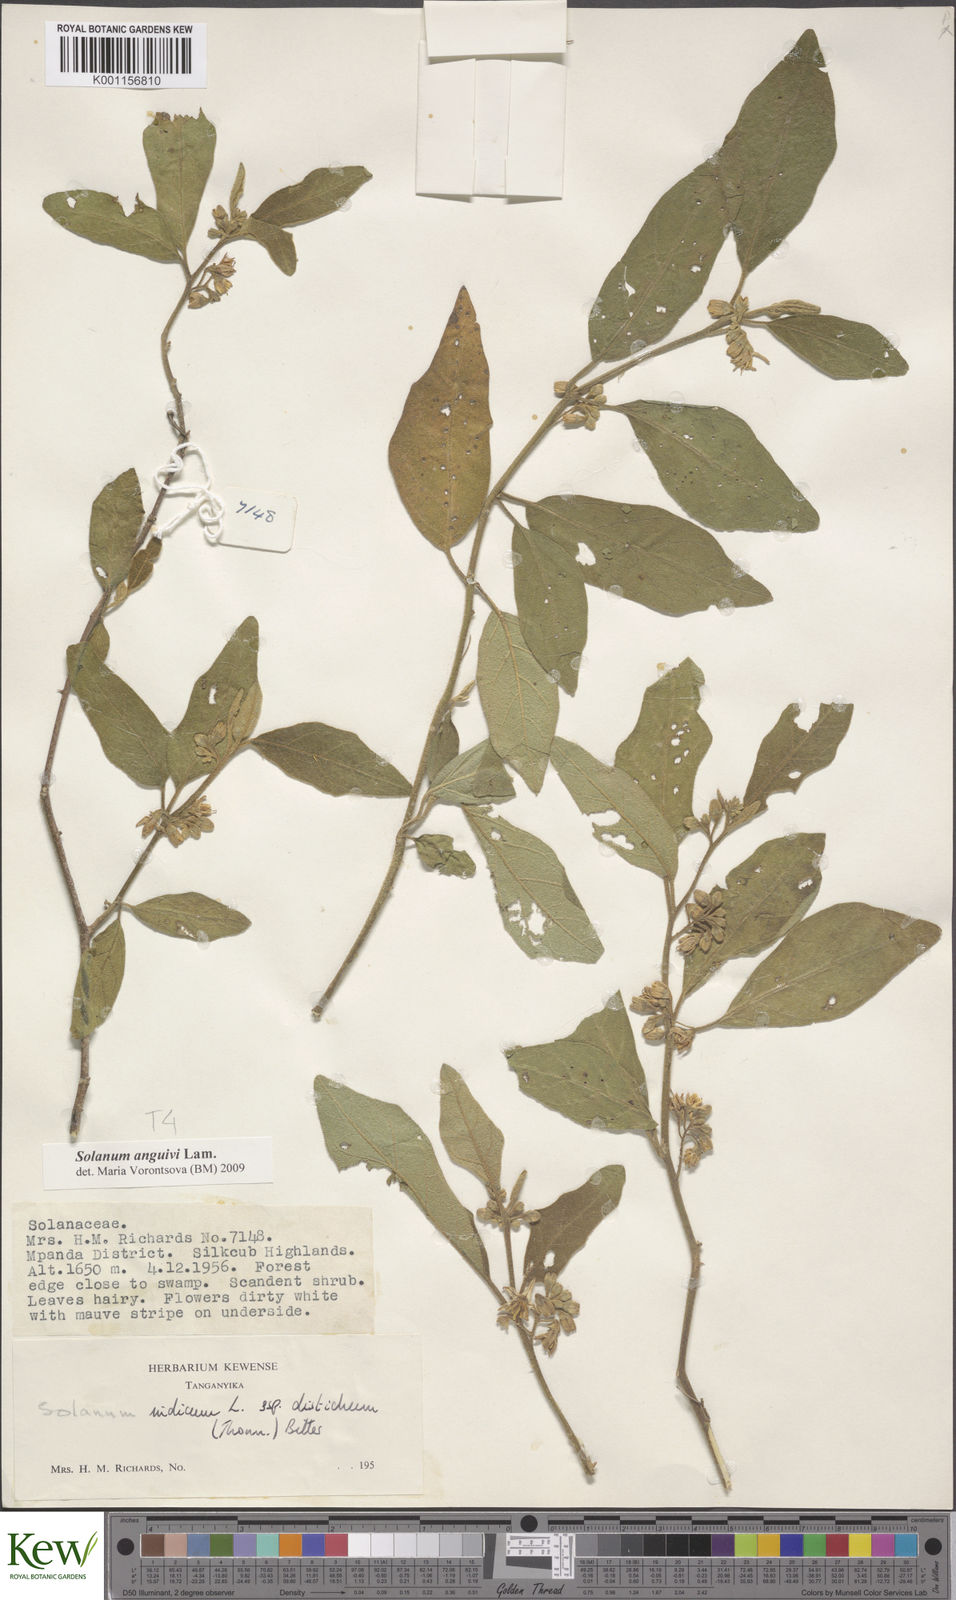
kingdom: Plantae
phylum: Tracheophyta
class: Magnoliopsida
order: Solanales
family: Solanaceae
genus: Solanum
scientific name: Solanum anguivi
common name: Forest bitterberry
